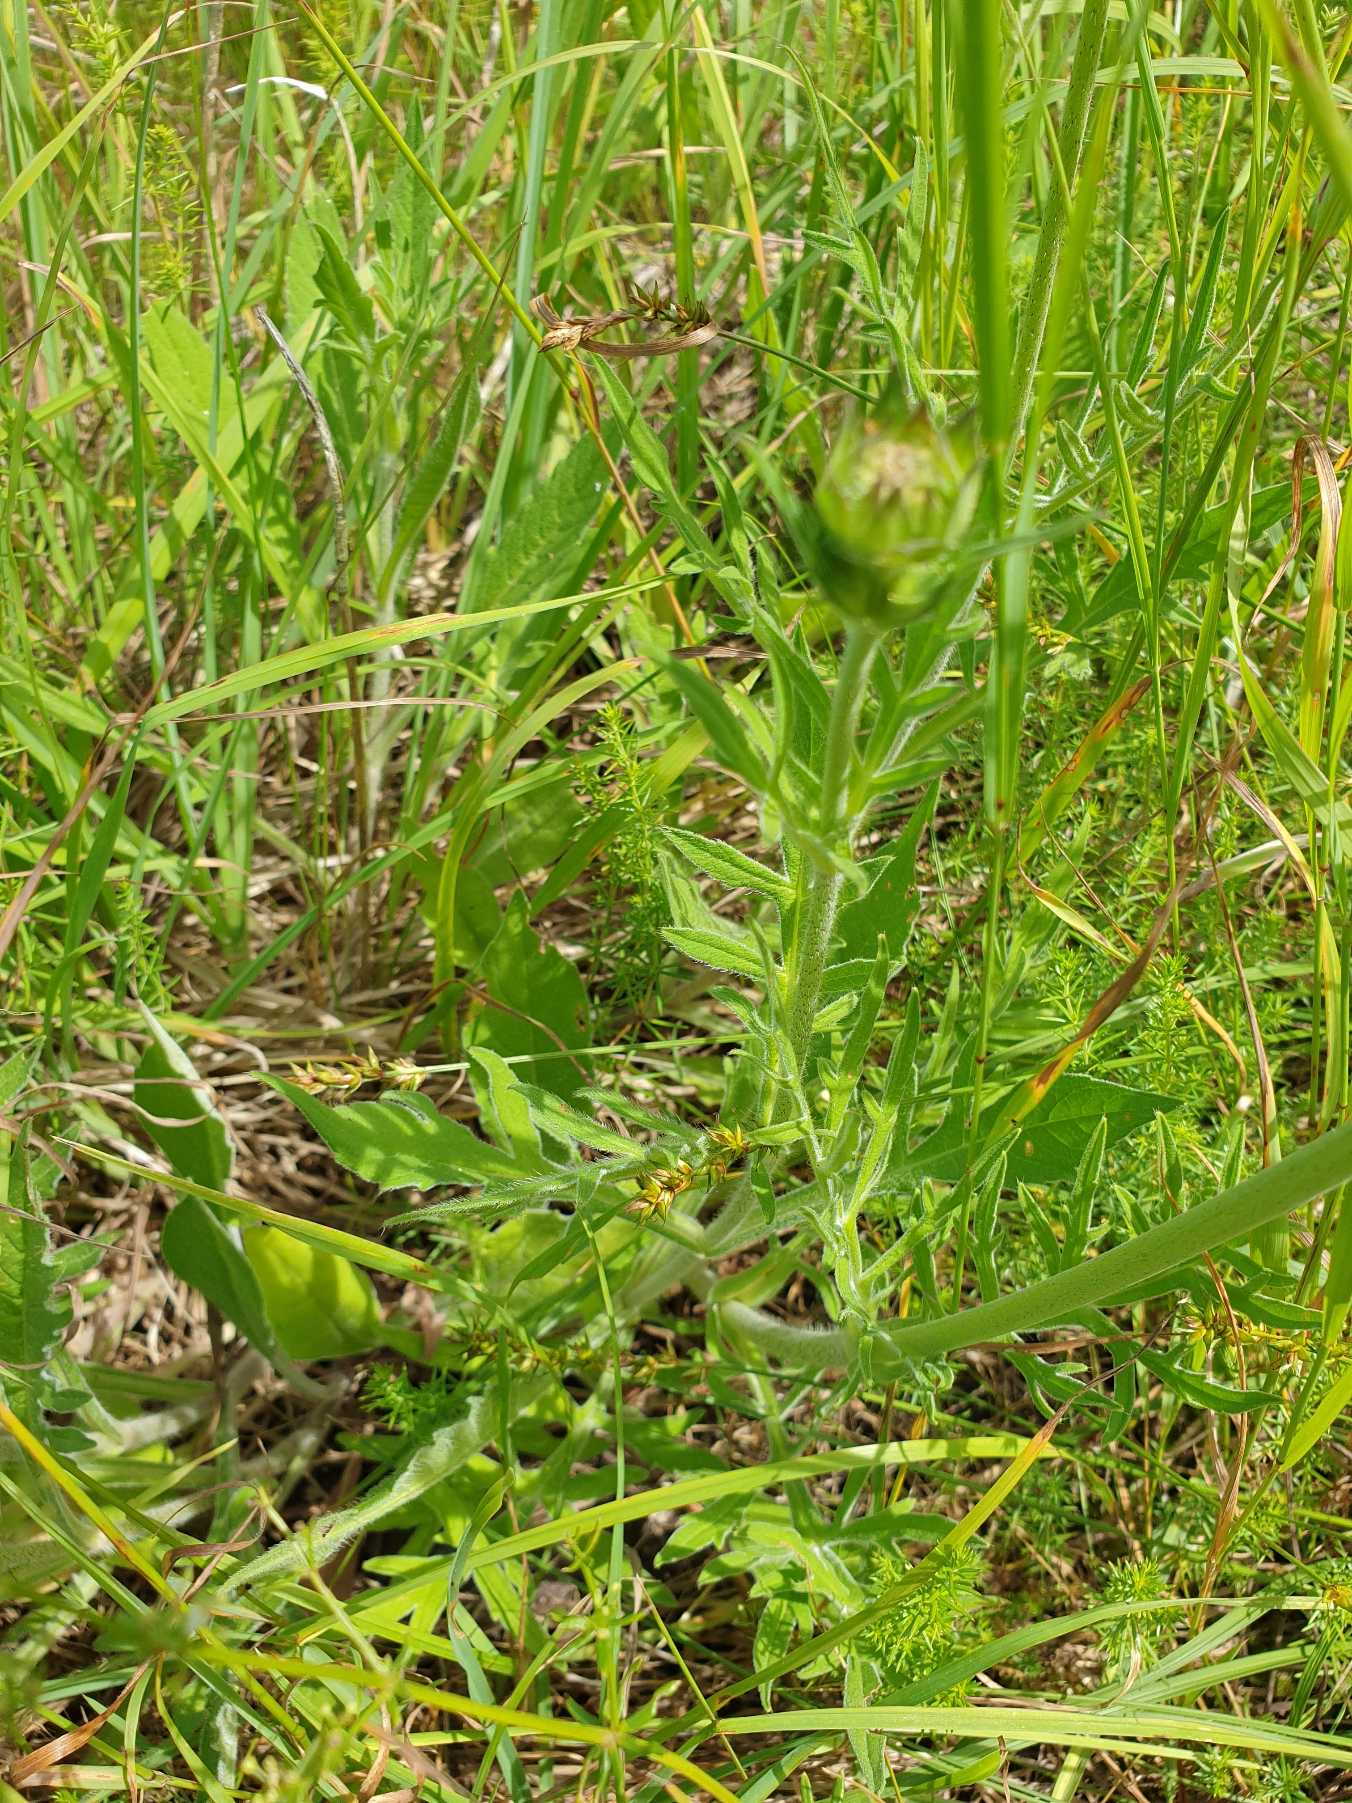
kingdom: Plantae
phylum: Tracheophyta
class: Magnoliopsida
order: Dipsacales
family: Caprifoliaceae
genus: Knautia
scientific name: Knautia arvensis
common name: Blåhat
